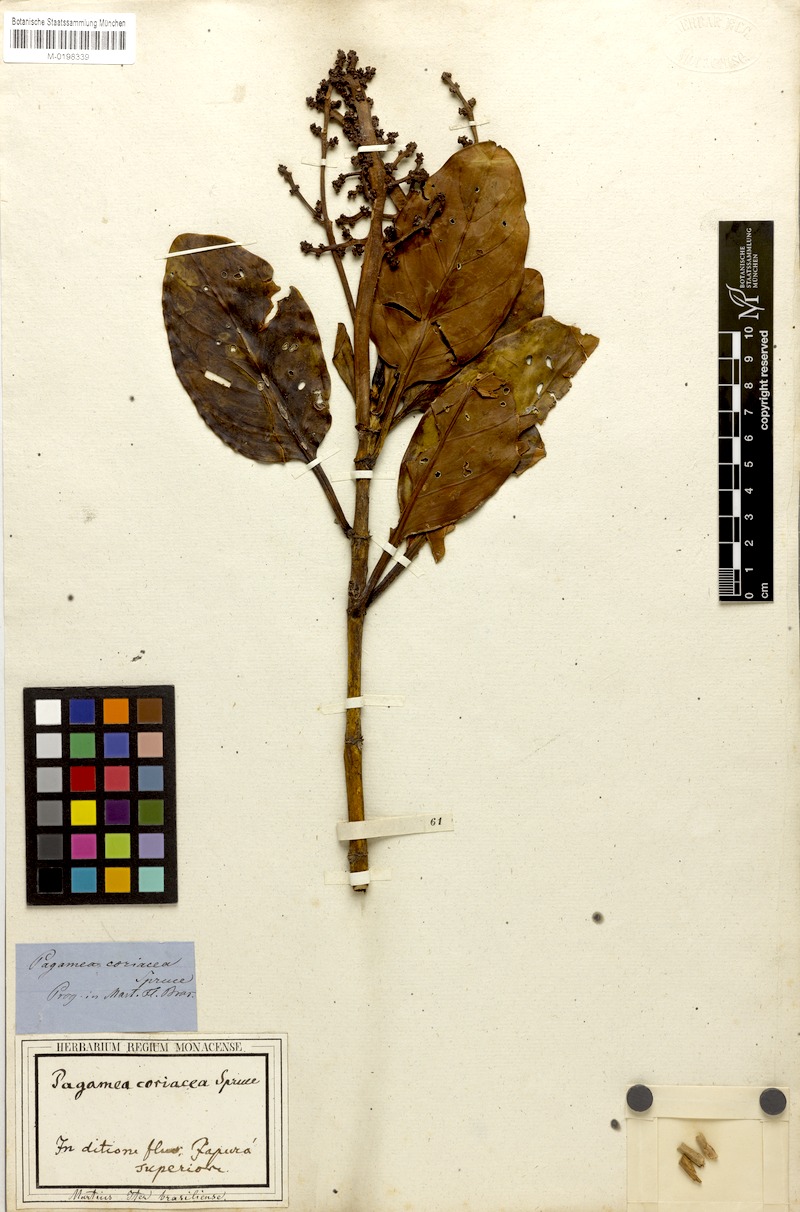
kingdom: Plantae
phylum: Tracheophyta
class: Magnoliopsida
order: Gentianales
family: Rubiaceae
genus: Pagamea
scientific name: Pagamea coriacea
